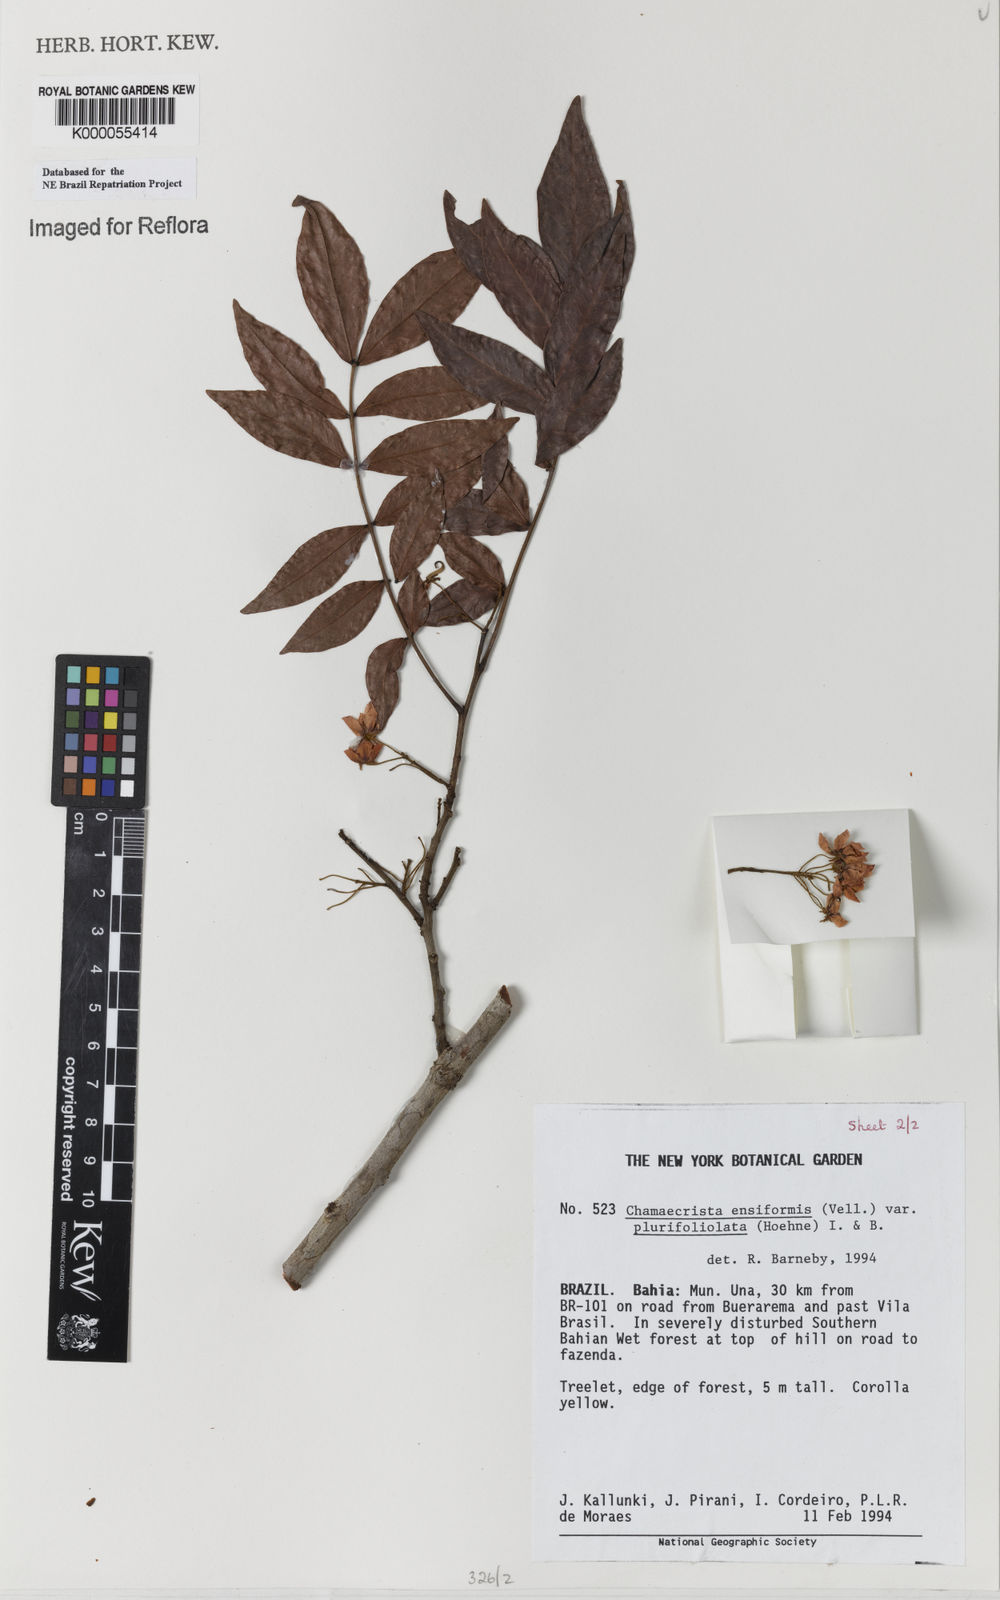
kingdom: Plantae
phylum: Tracheophyta
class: Magnoliopsida
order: Fabales
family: Fabaceae
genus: Chamaecrista
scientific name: Chamaecrista ensiformis
